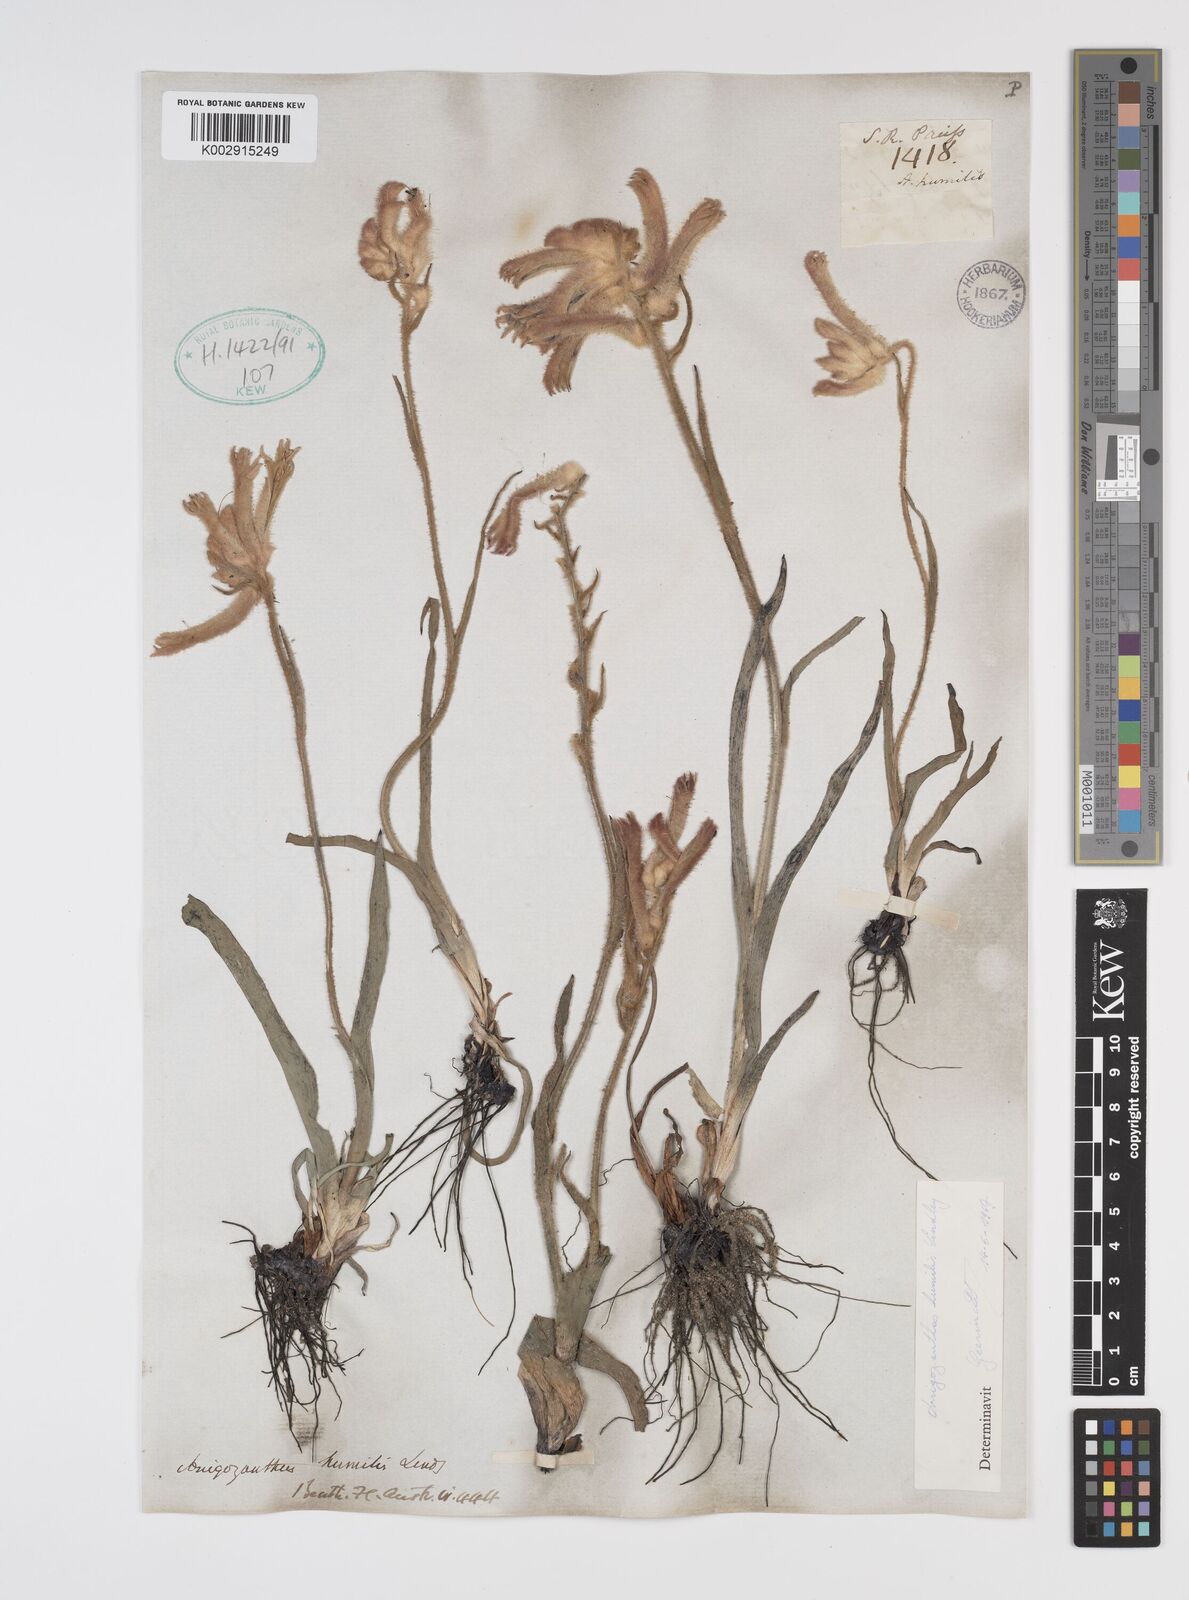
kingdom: Plantae
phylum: Tracheophyta
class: Liliopsida
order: Commelinales
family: Haemodoraceae
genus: Anigozanthos
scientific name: Anigozanthos humilis
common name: Cat's-paw
